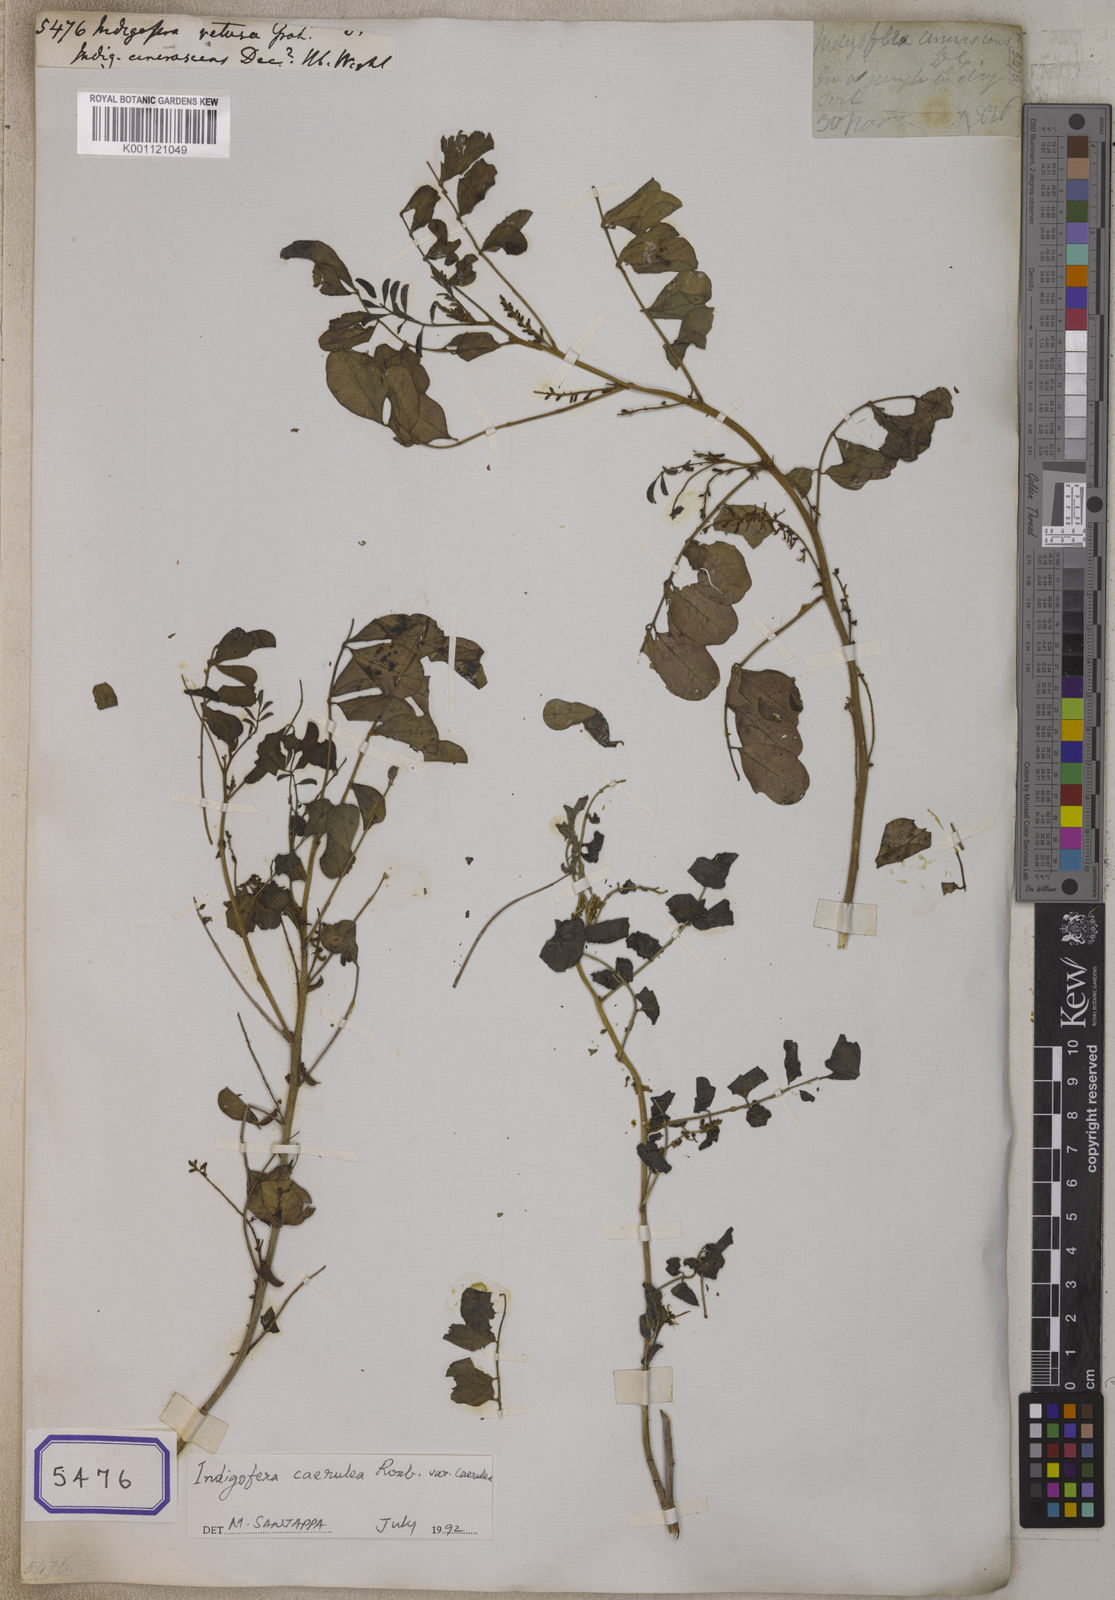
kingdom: Plantae
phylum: Tracheophyta
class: Magnoliopsida
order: Fabales
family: Fabaceae
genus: Indigofera
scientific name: Indigofera argentea
